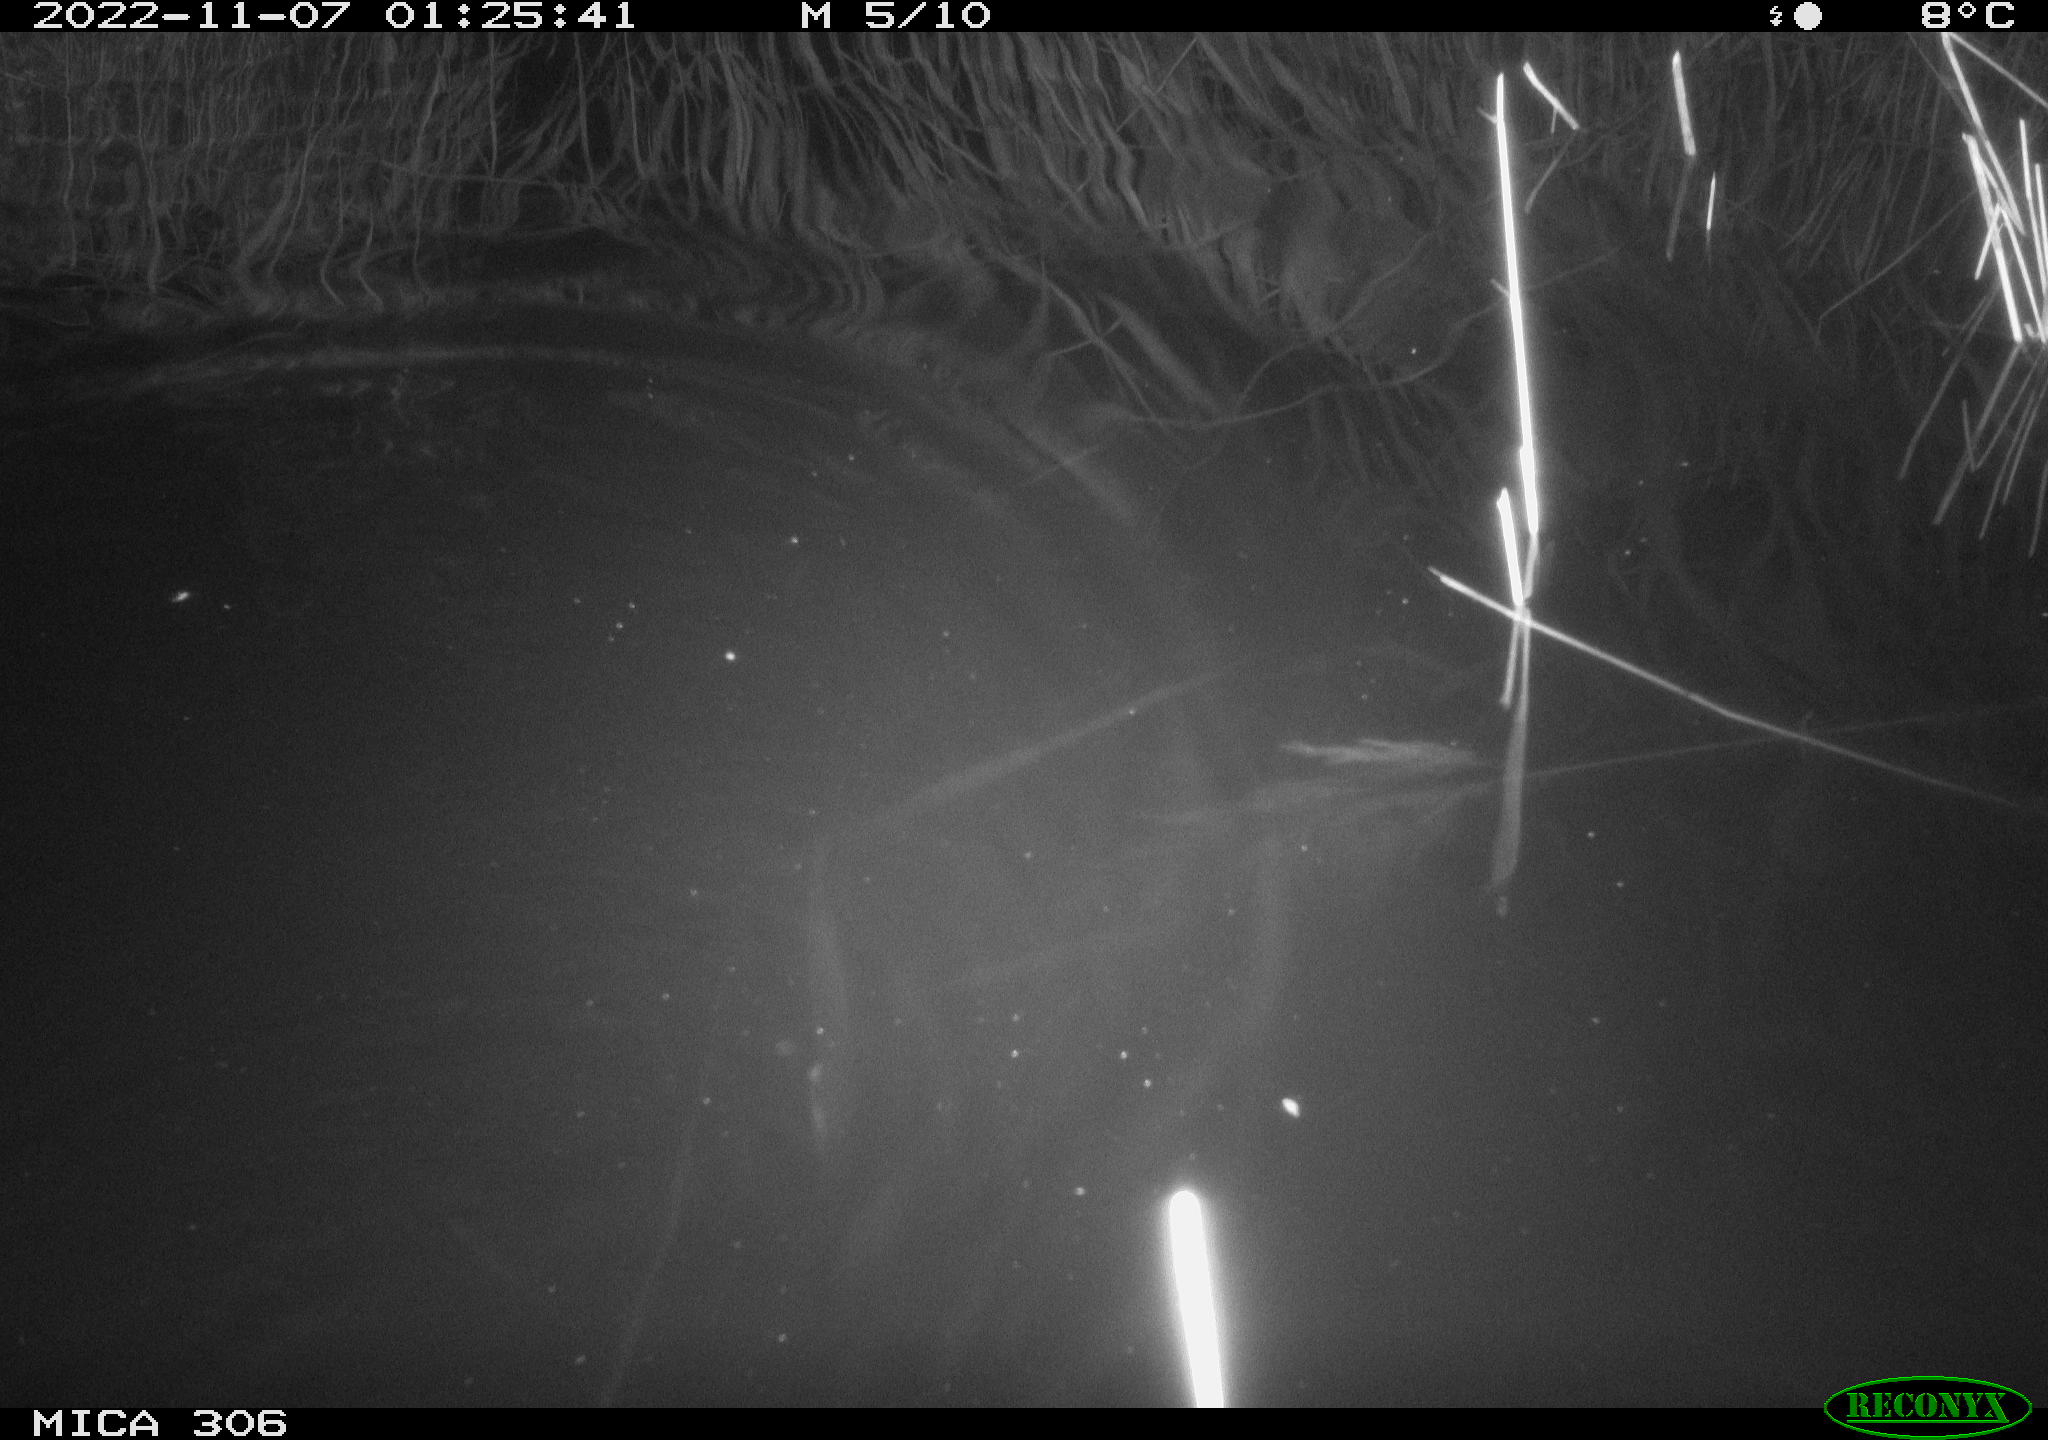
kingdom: Animalia
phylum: Chordata
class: Mammalia
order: Rodentia
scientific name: Rodentia
